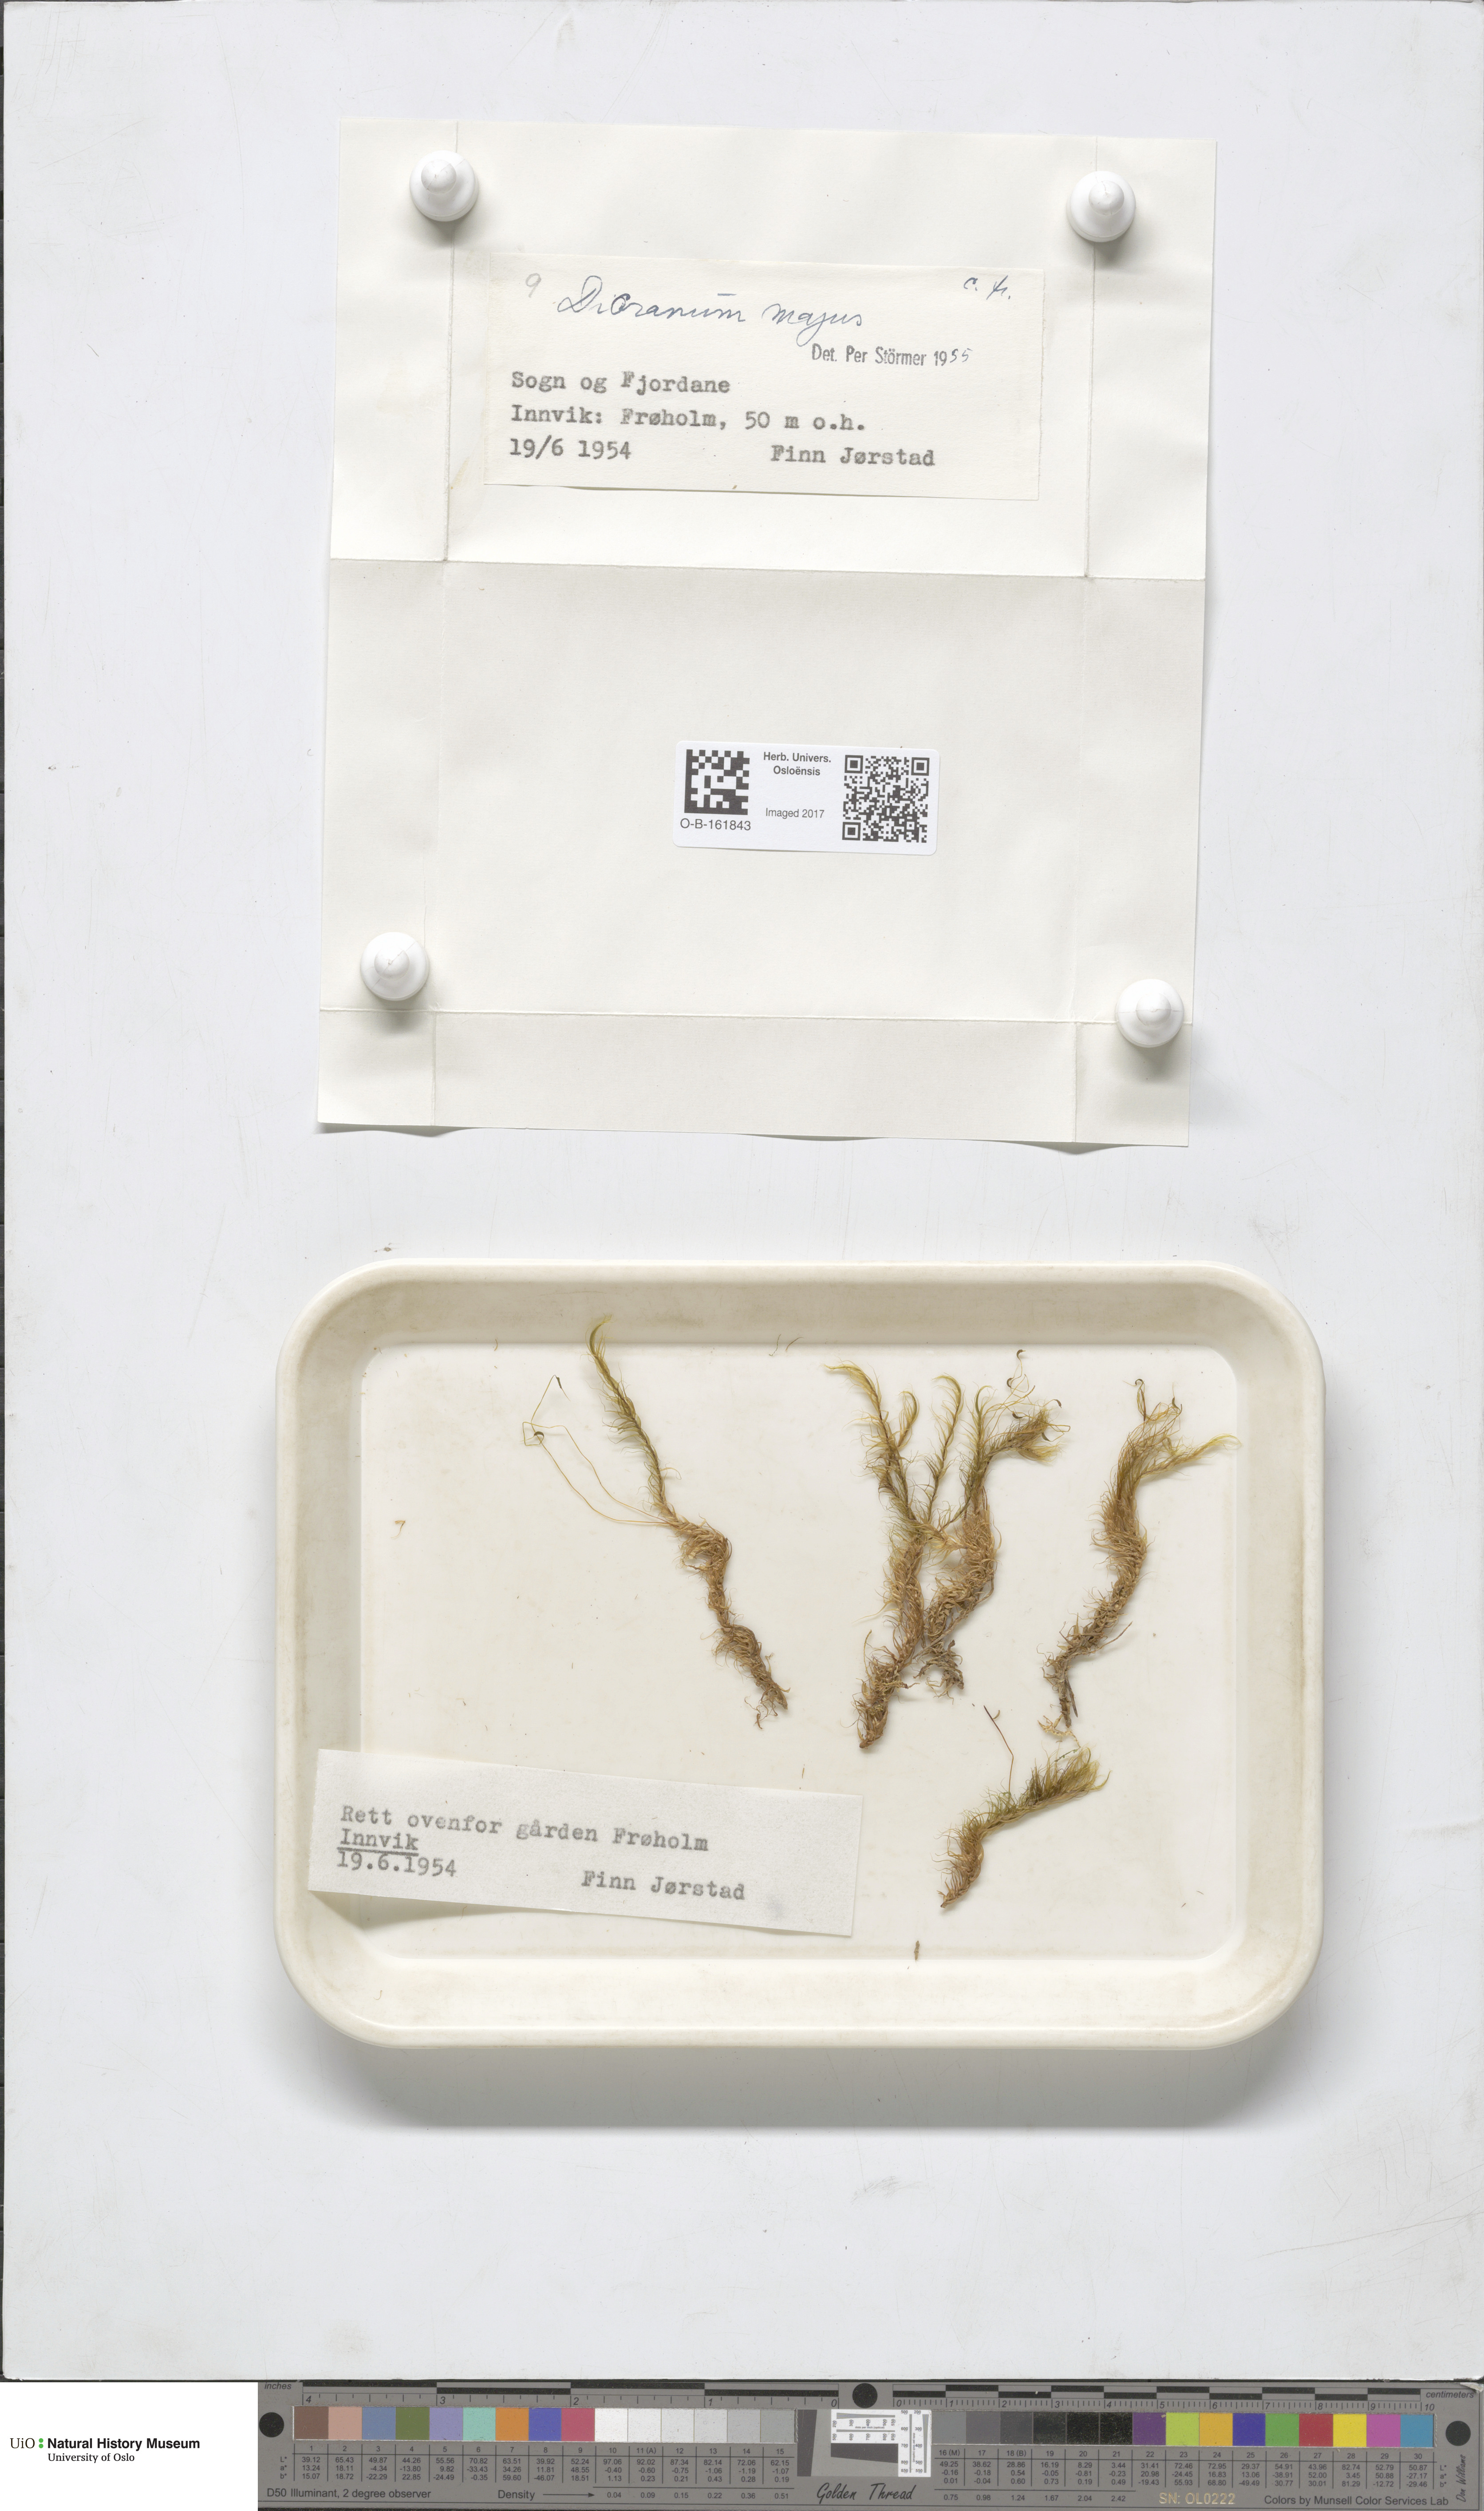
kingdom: Plantae
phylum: Bryophyta
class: Bryopsida
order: Dicranales
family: Dicranaceae
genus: Dicranum
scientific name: Dicranum majus
